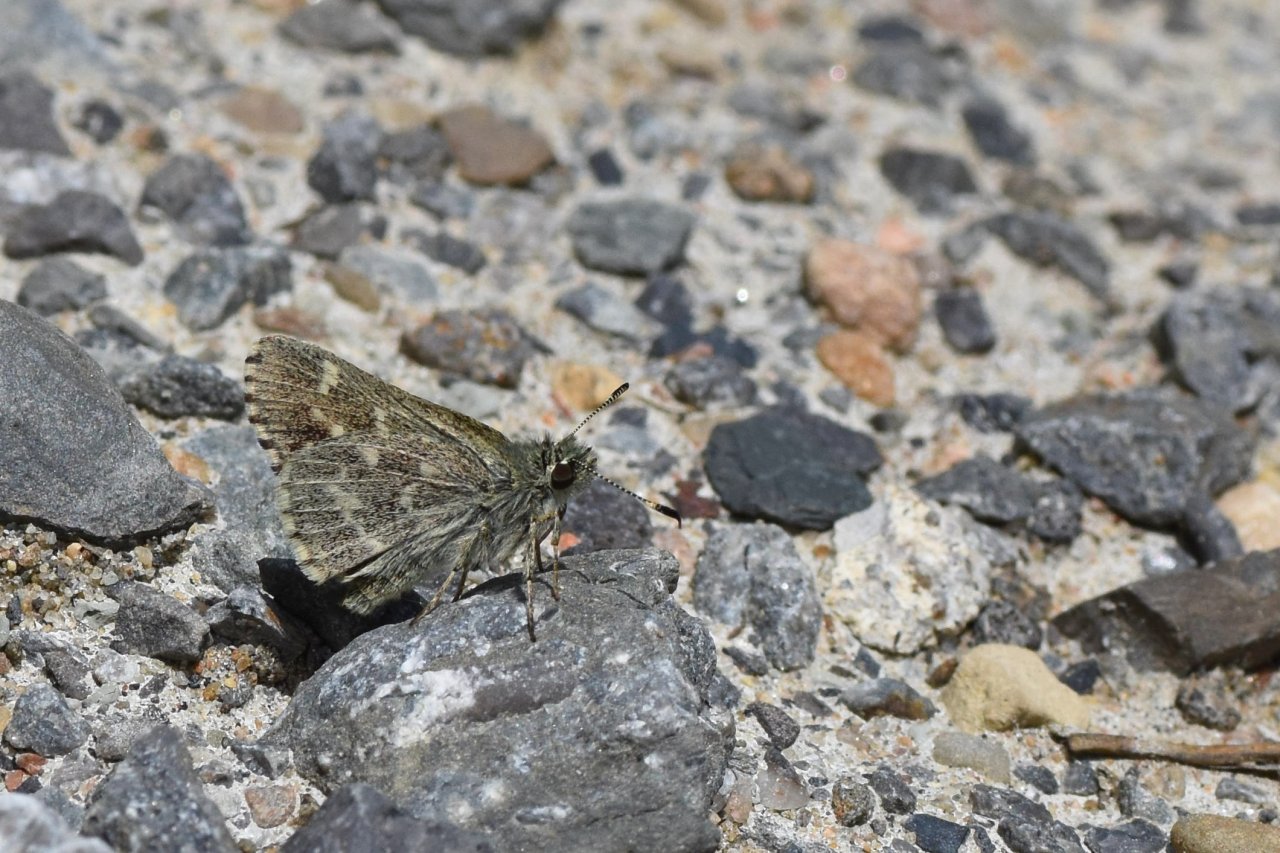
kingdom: Animalia
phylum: Arthropoda
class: Insecta
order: Lepidoptera
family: Hesperiidae
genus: Mastor
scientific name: Mastor hegon
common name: Pepper and Salt Skipper
